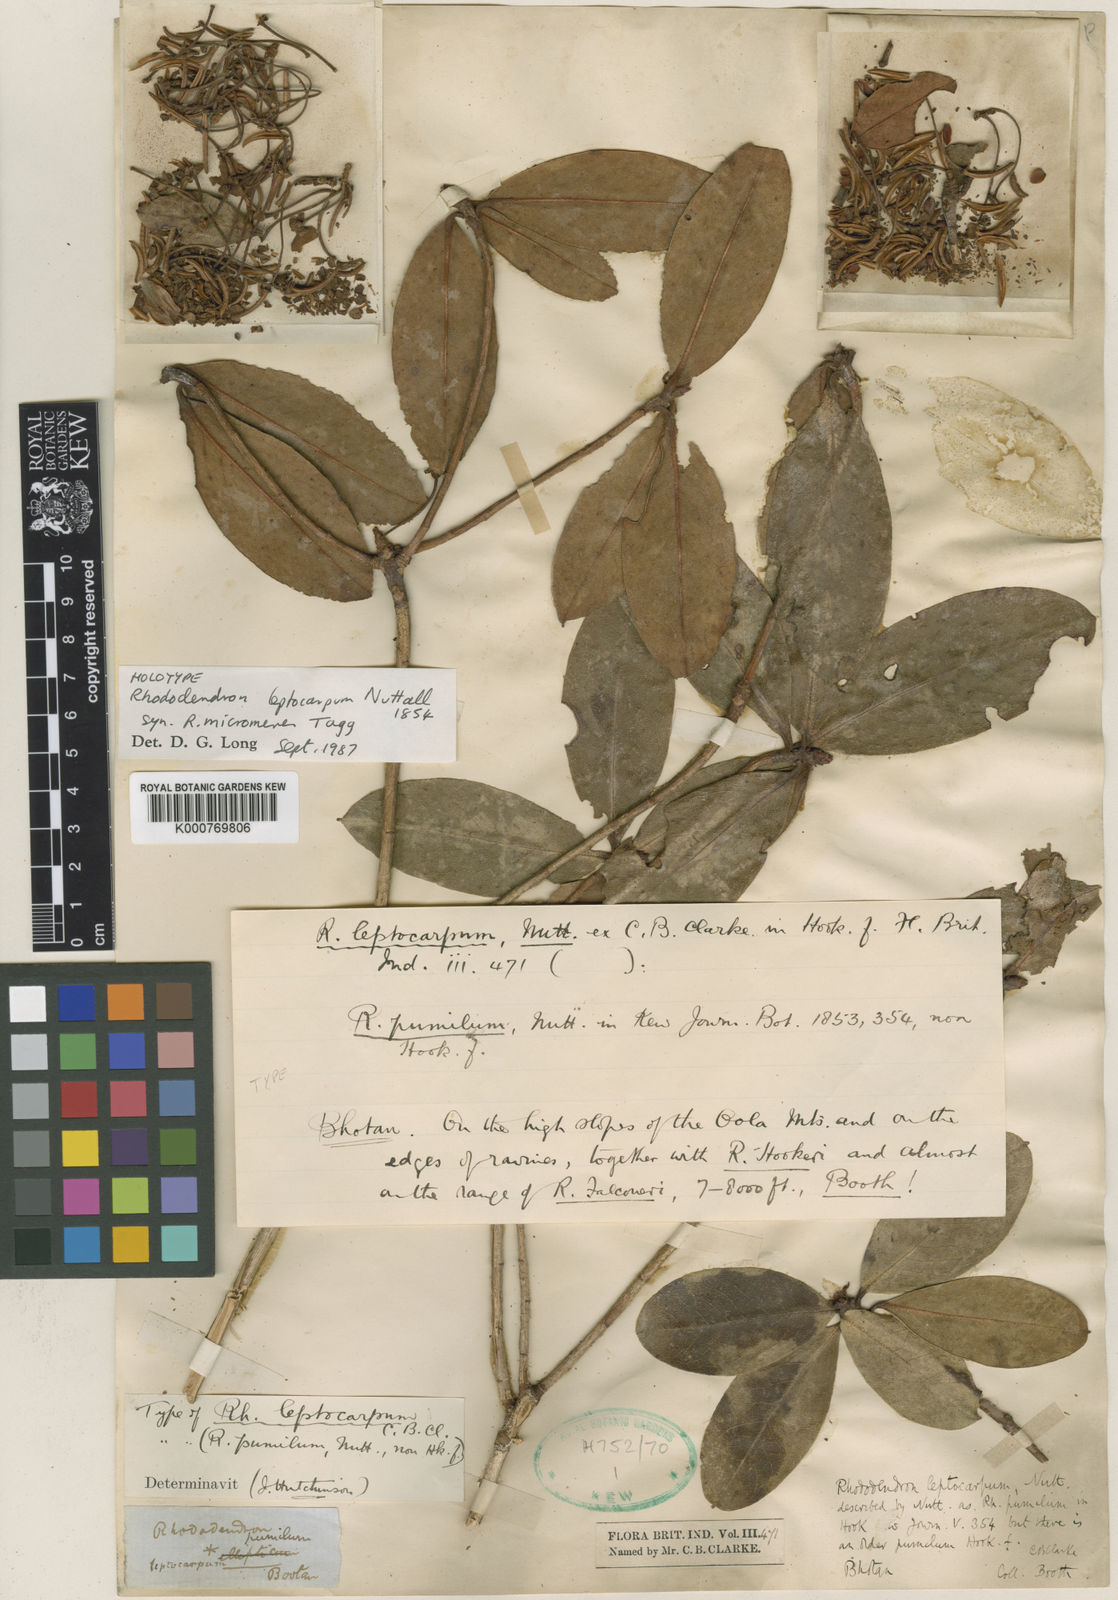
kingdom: Plantae
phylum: Tracheophyta
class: Magnoliopsida
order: Ericales
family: Ericaceae
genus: Rhododendron
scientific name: Rhododendron leptocarpum
